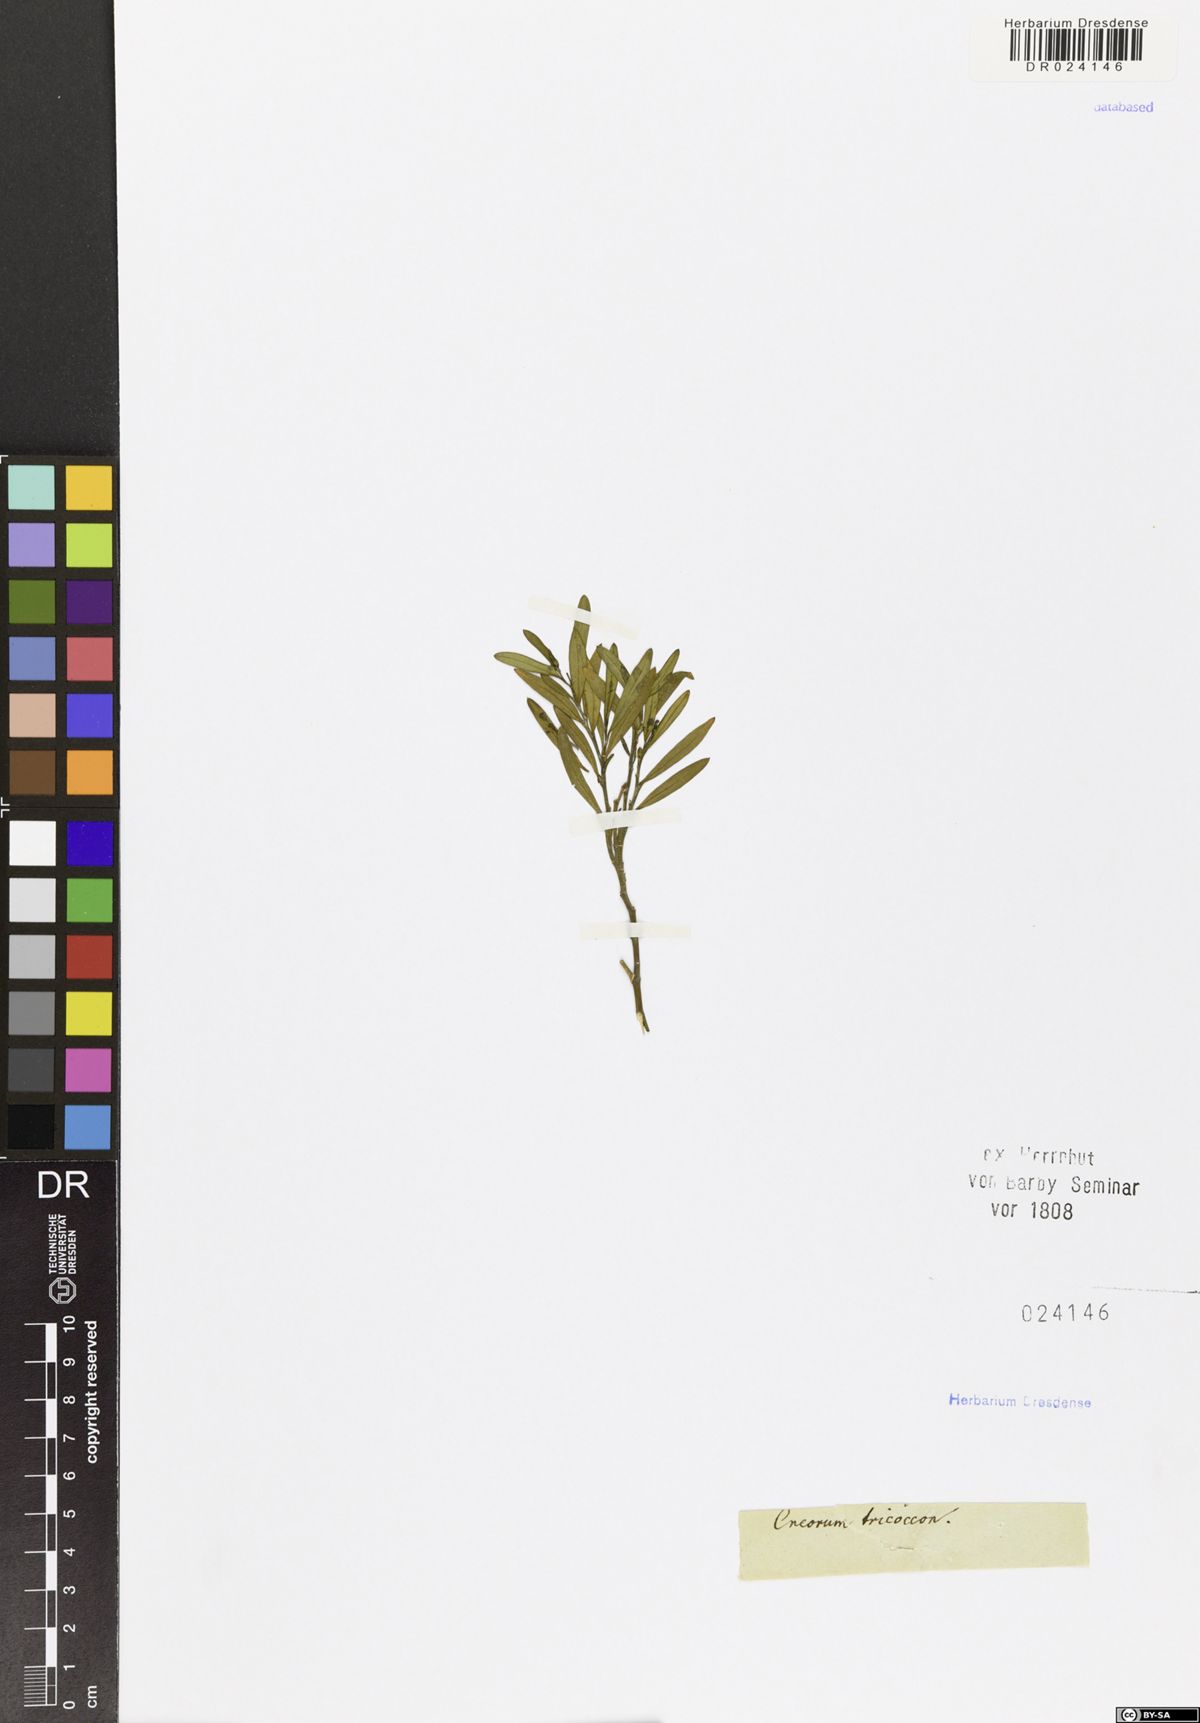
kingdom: Plantae
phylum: Tracheophyta
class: Magnoliopsida
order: Sapindales
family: Rutaceae
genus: Cneorum
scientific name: Cneorum tricoccon
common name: Spurge olive
